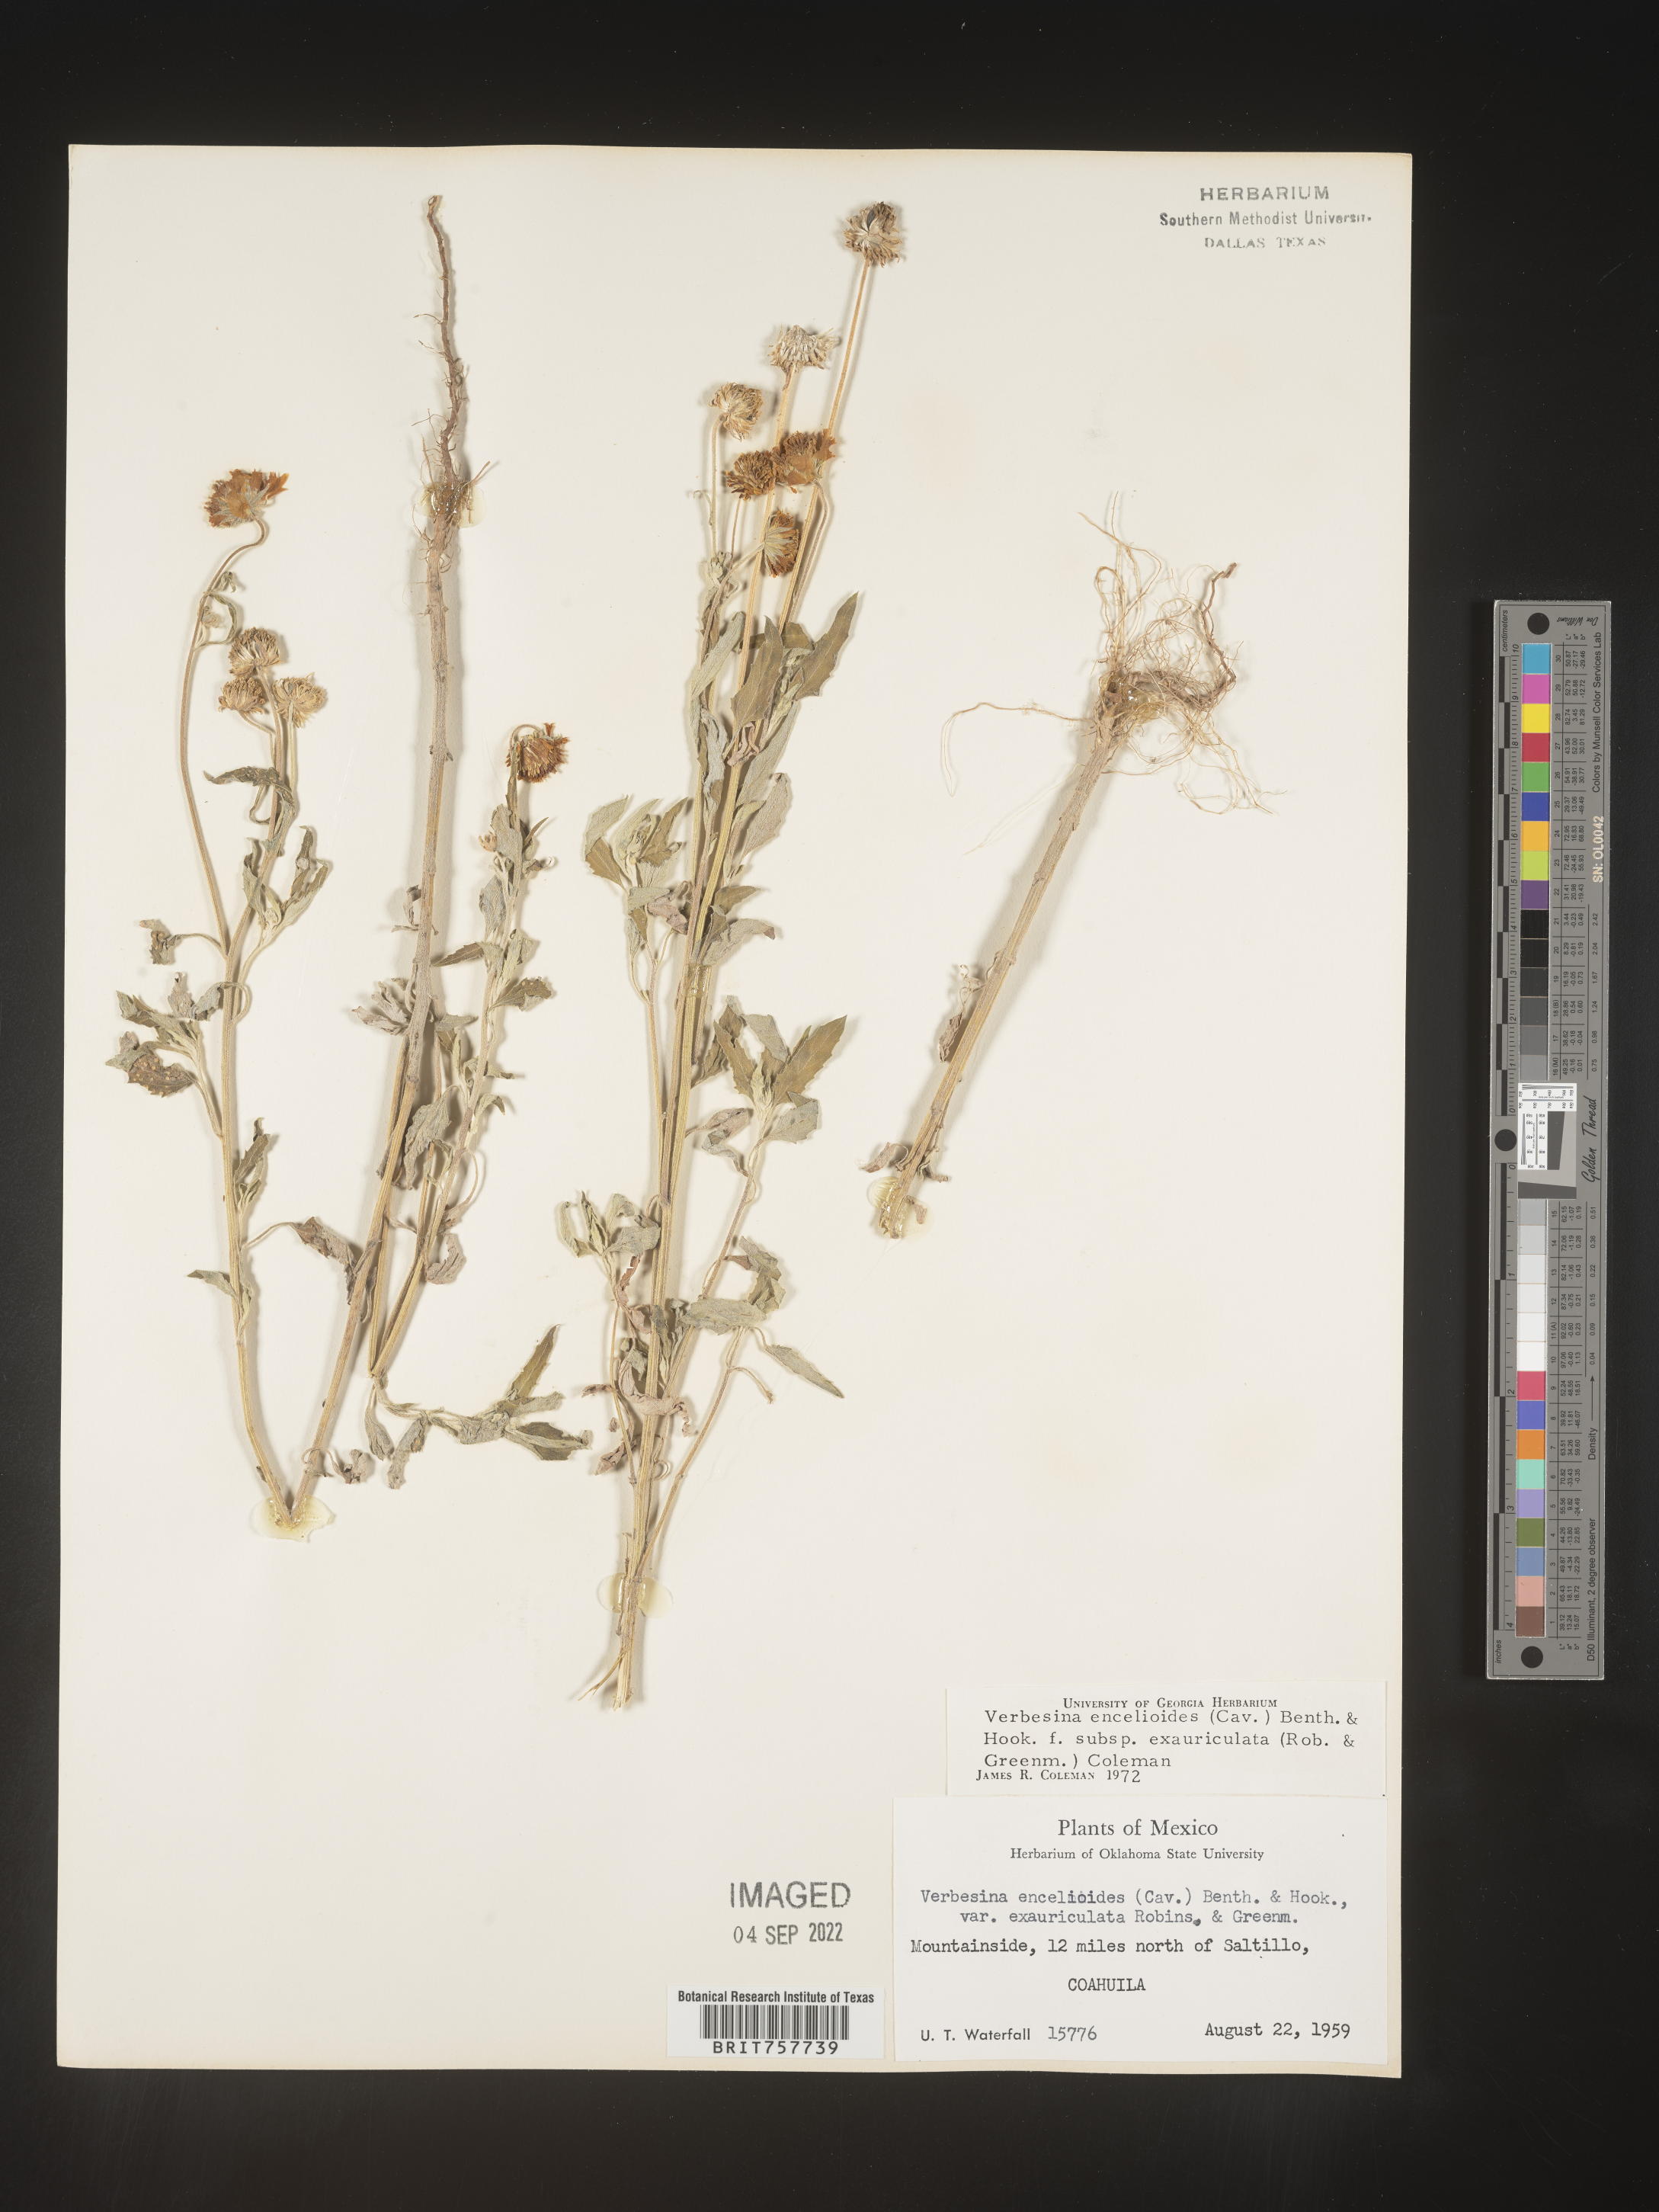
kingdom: Plantae
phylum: Tracheophyta
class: Magnoliopsida
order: Asterales
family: Asteraceae
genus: Verbesina
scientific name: Verbesina
